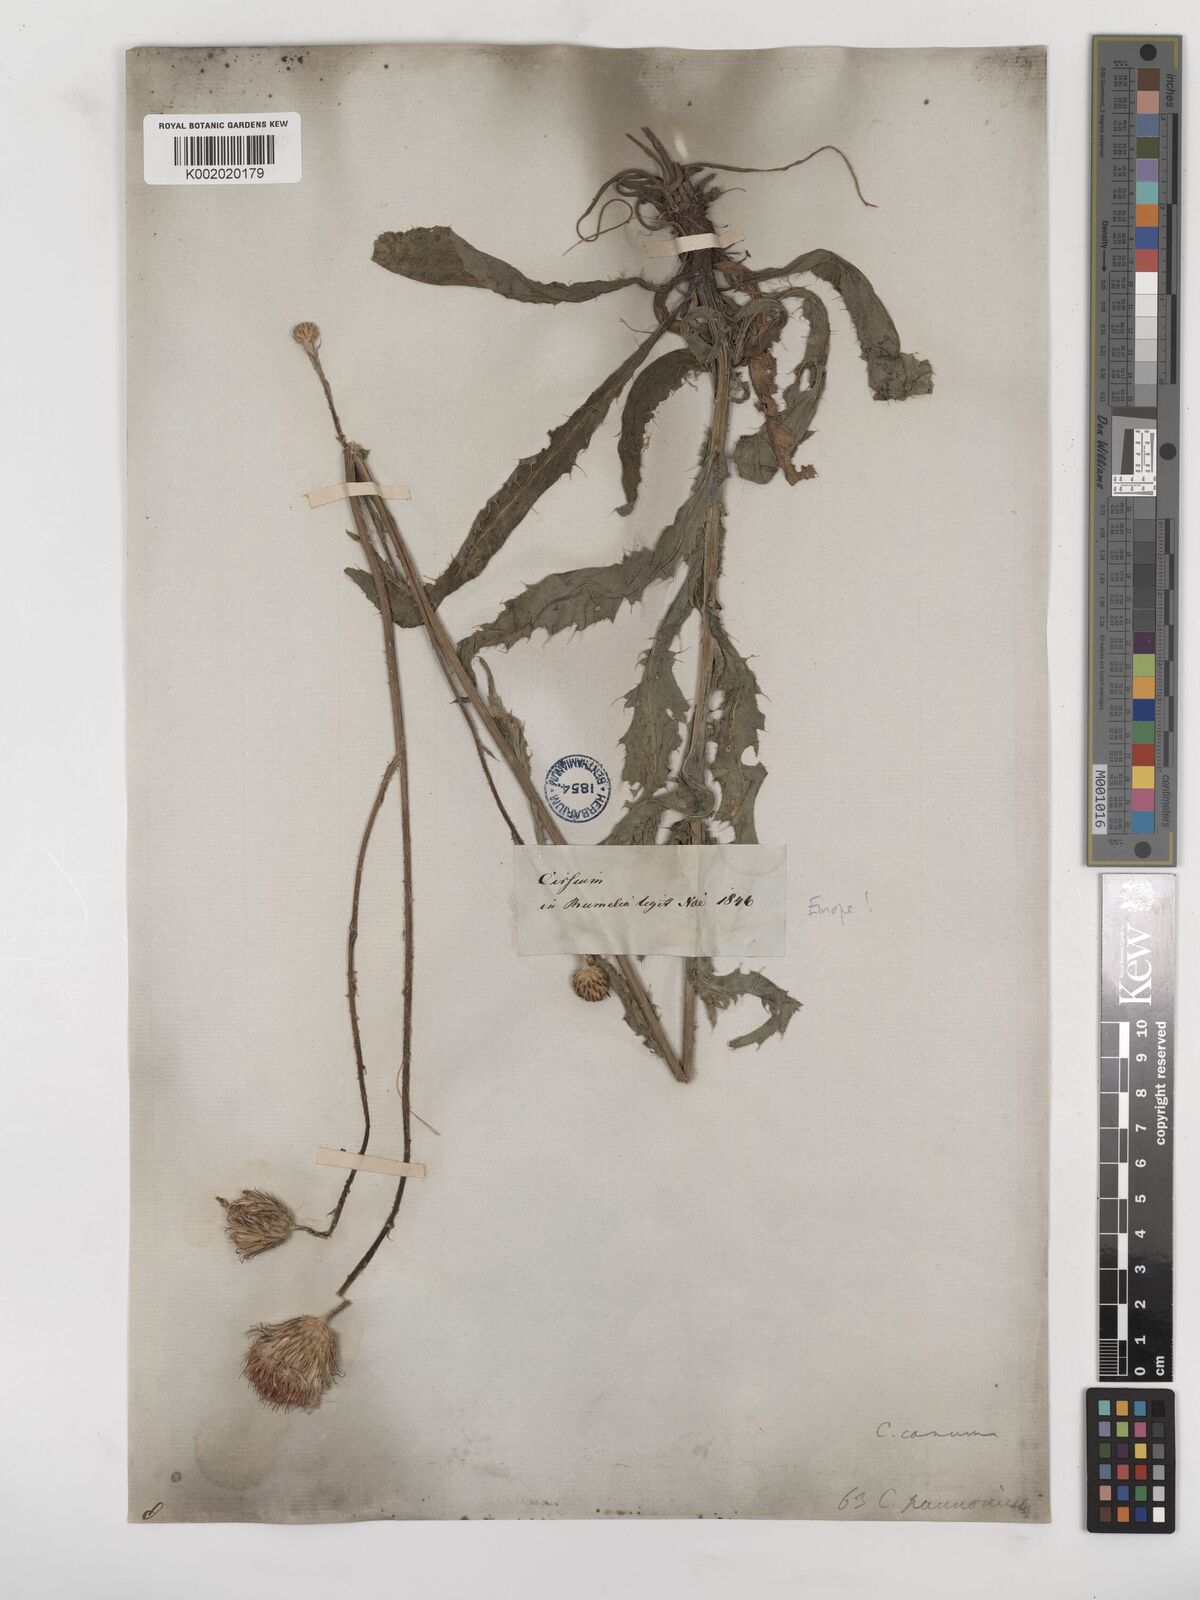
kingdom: Plantae
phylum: Tracheophyta
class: Magnoliopsida
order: Asterales
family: Asteraceae
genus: Cirsium
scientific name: Cirsium canum
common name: Queen anne's thistle
